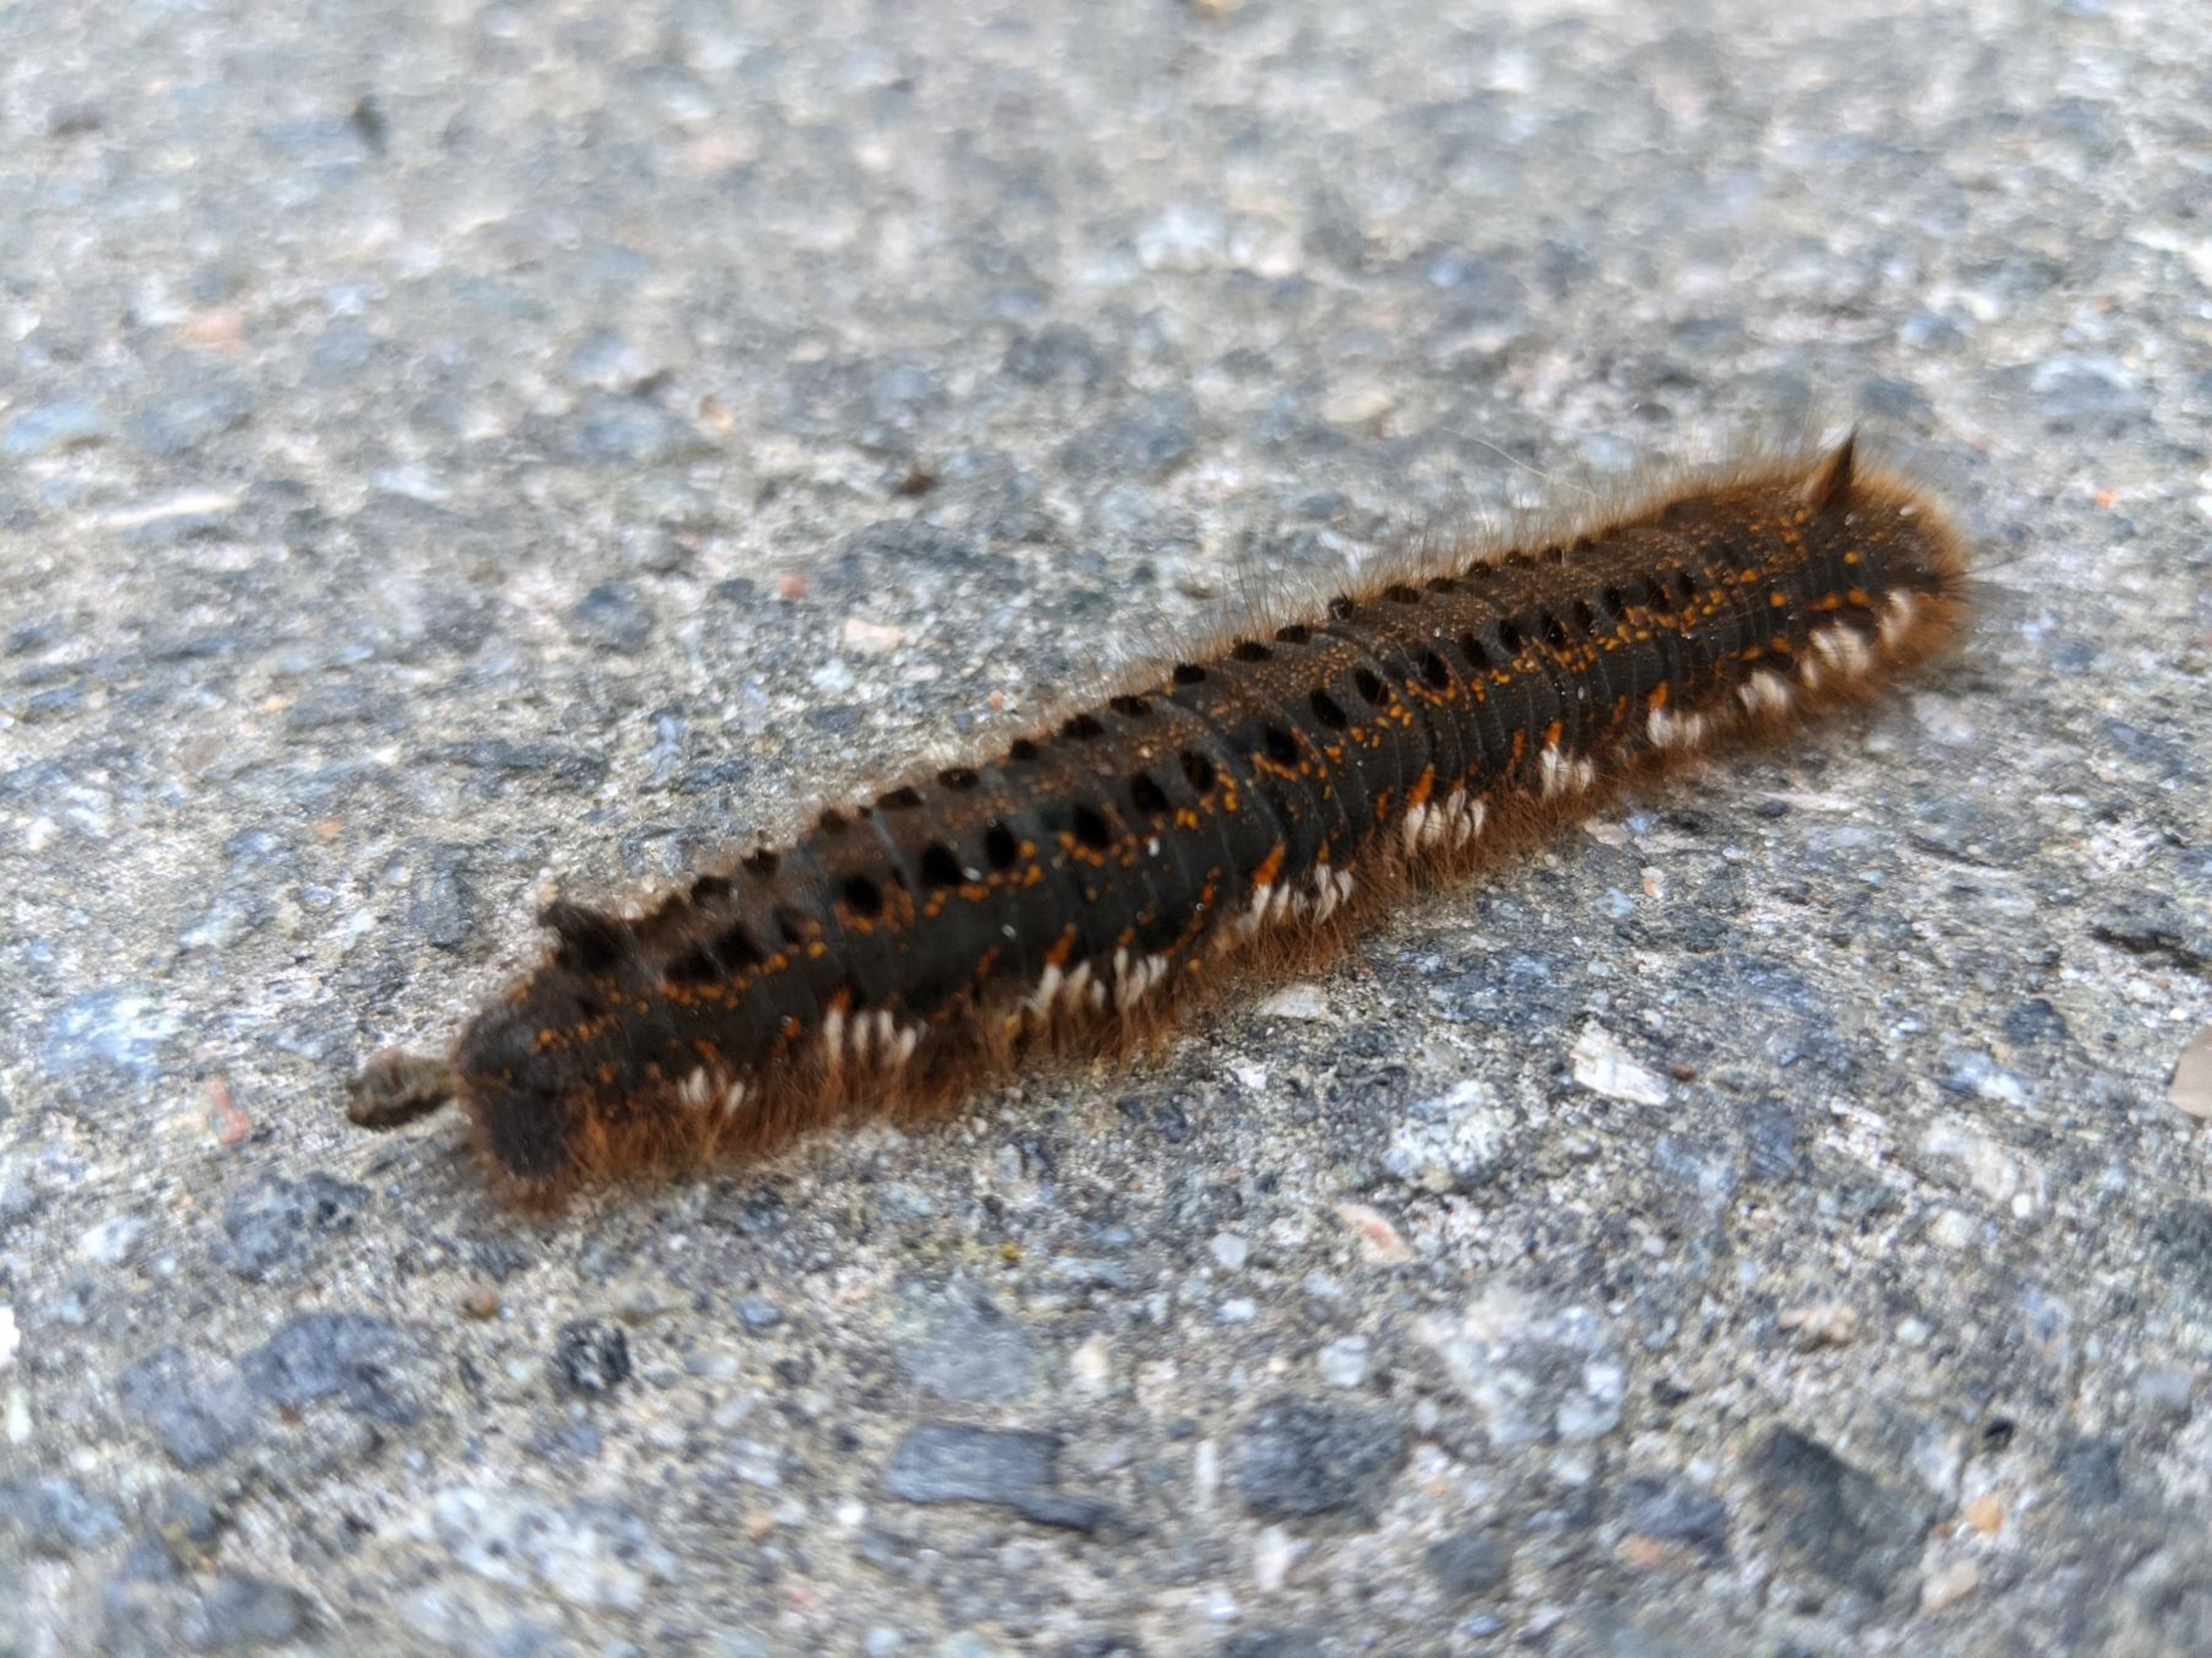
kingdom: Animalia
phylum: Arthropoda
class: Insecta
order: Lepidoptera
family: Lasiocampidae
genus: Euthrix
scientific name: Euthrix potatoria
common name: Græsspinder
